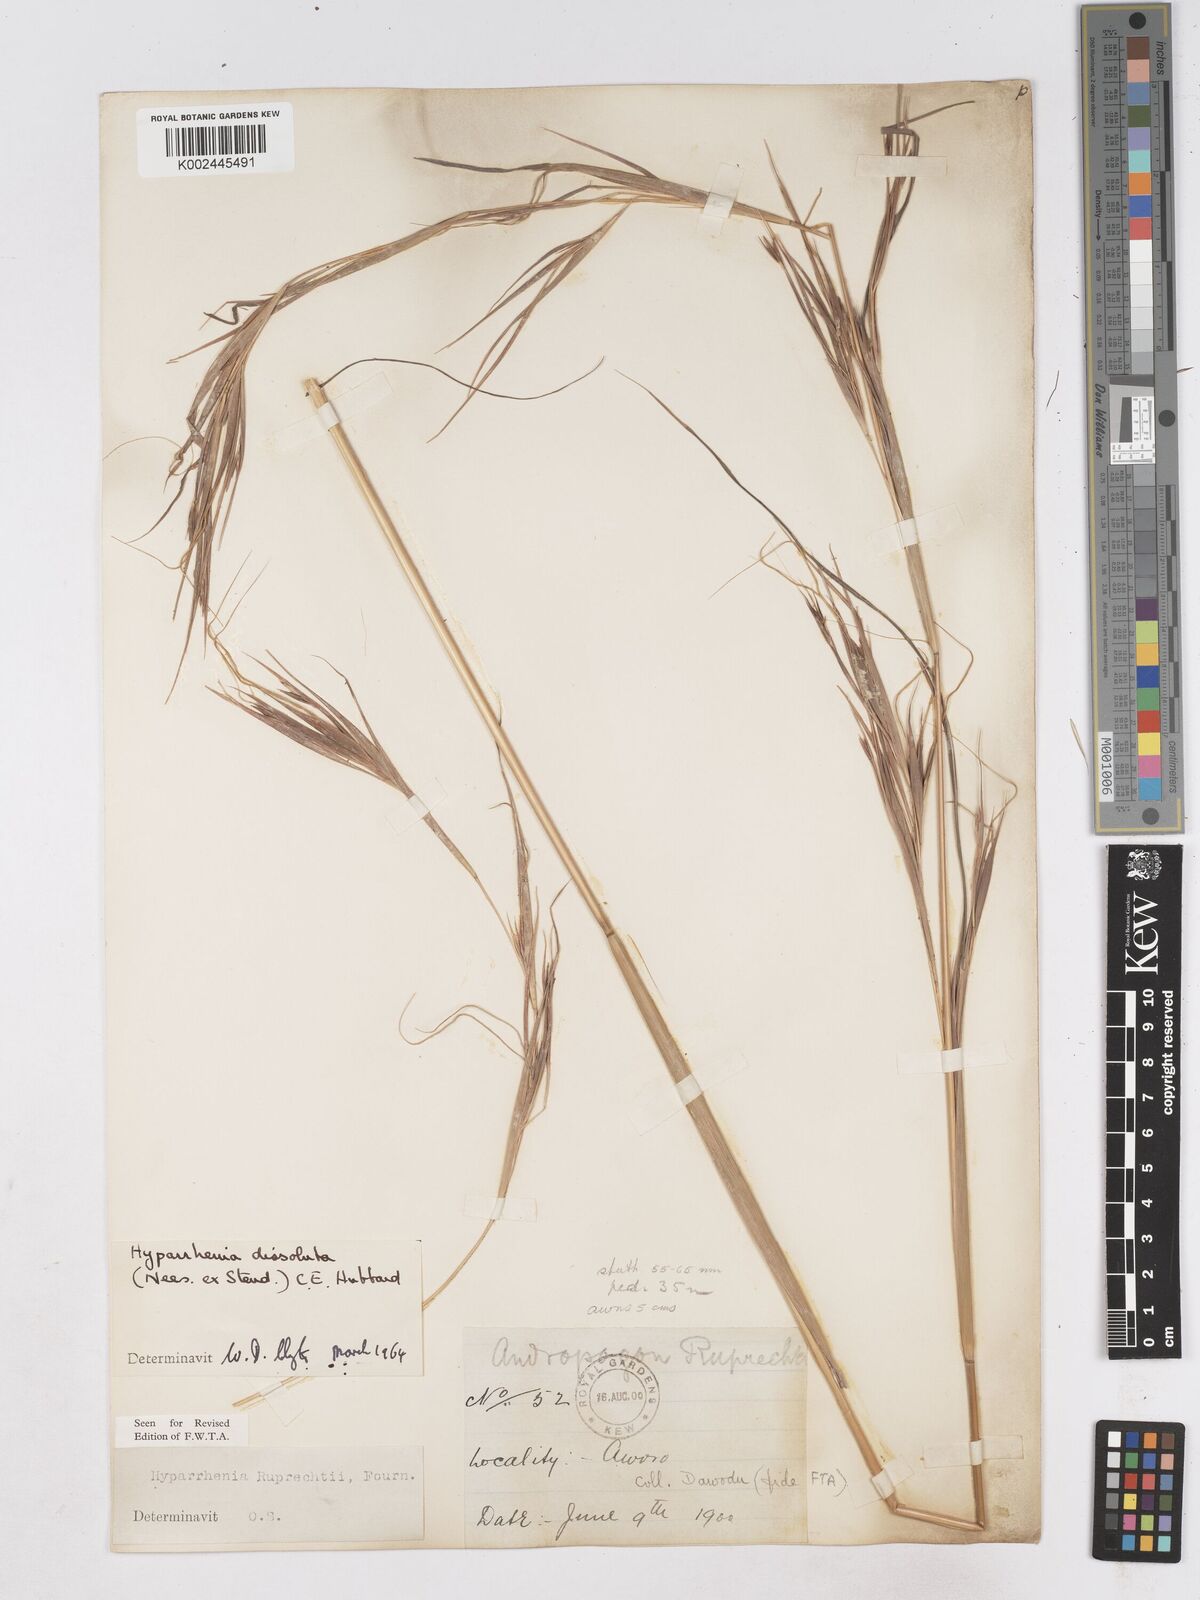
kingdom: Plantae
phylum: Tracheophyta
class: Liliopsida
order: Poales
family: Poaceae
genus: Hyperthelia
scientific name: Hyperthelia dissoluta
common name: Yellow thatching grass
